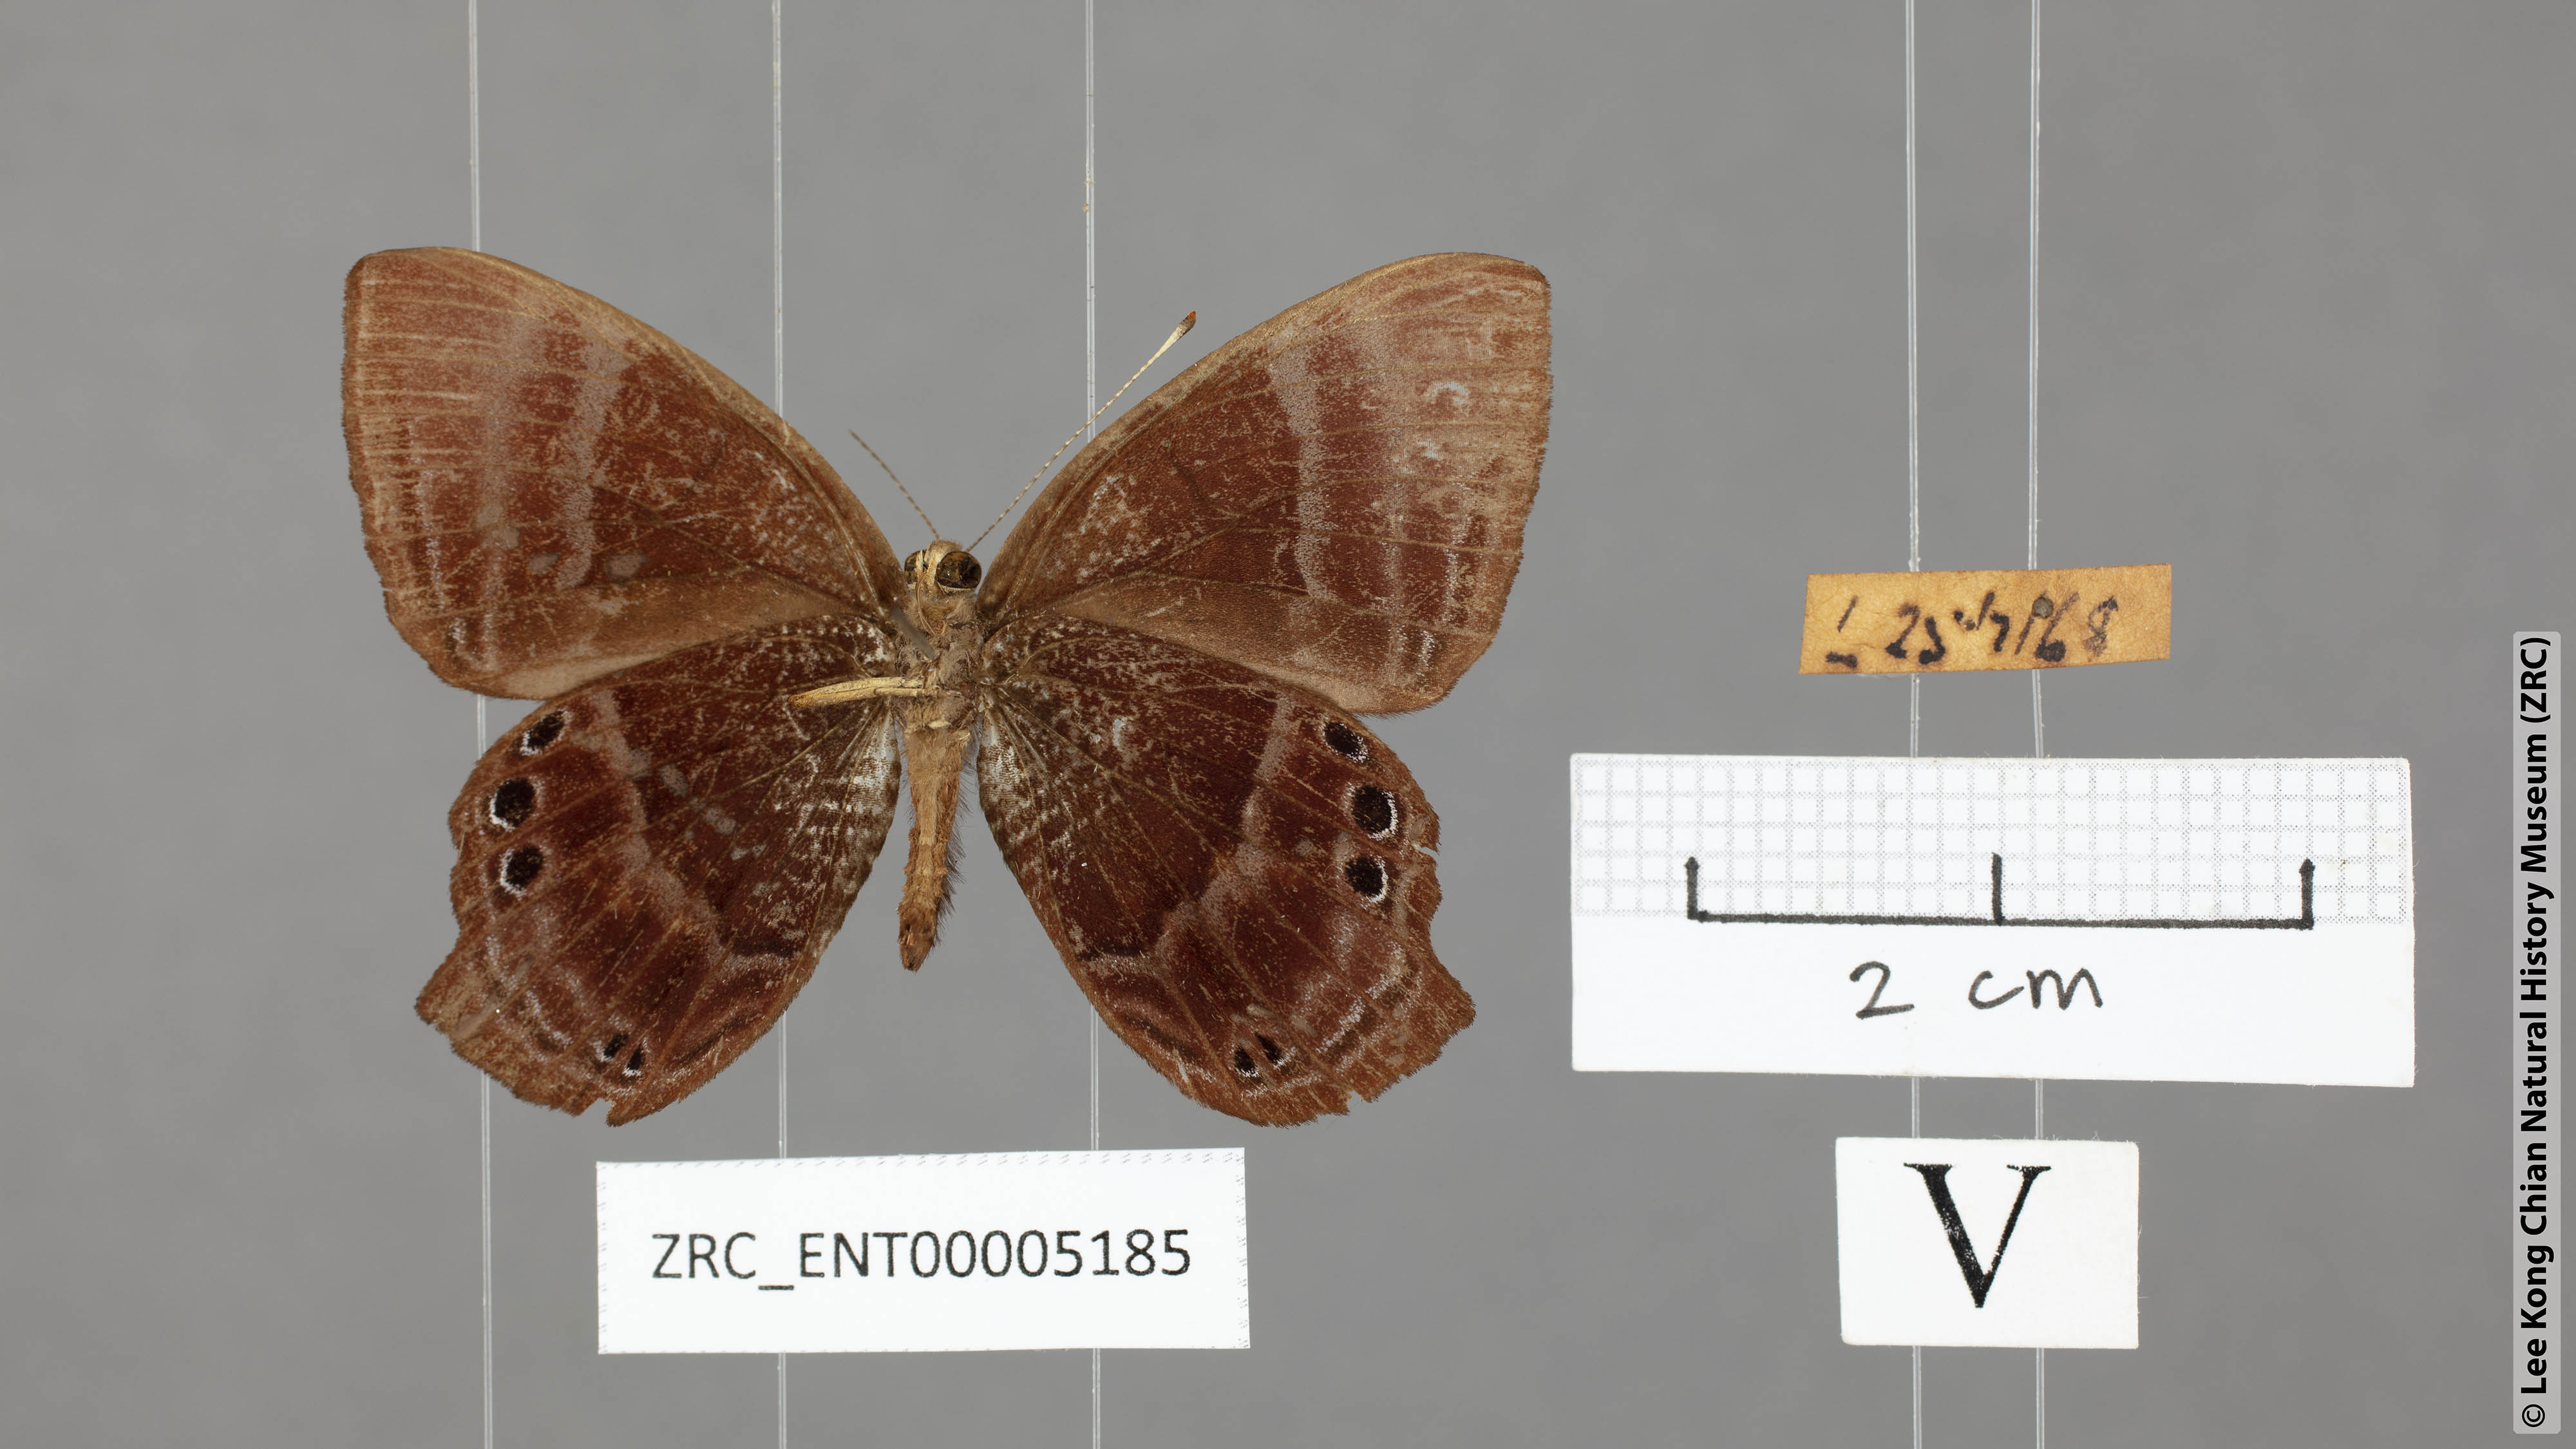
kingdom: Animalia
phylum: Arthropoda
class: Insecta
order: Lepidoptera
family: Lycaenidae
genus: Abisara
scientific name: Abisara saturata
